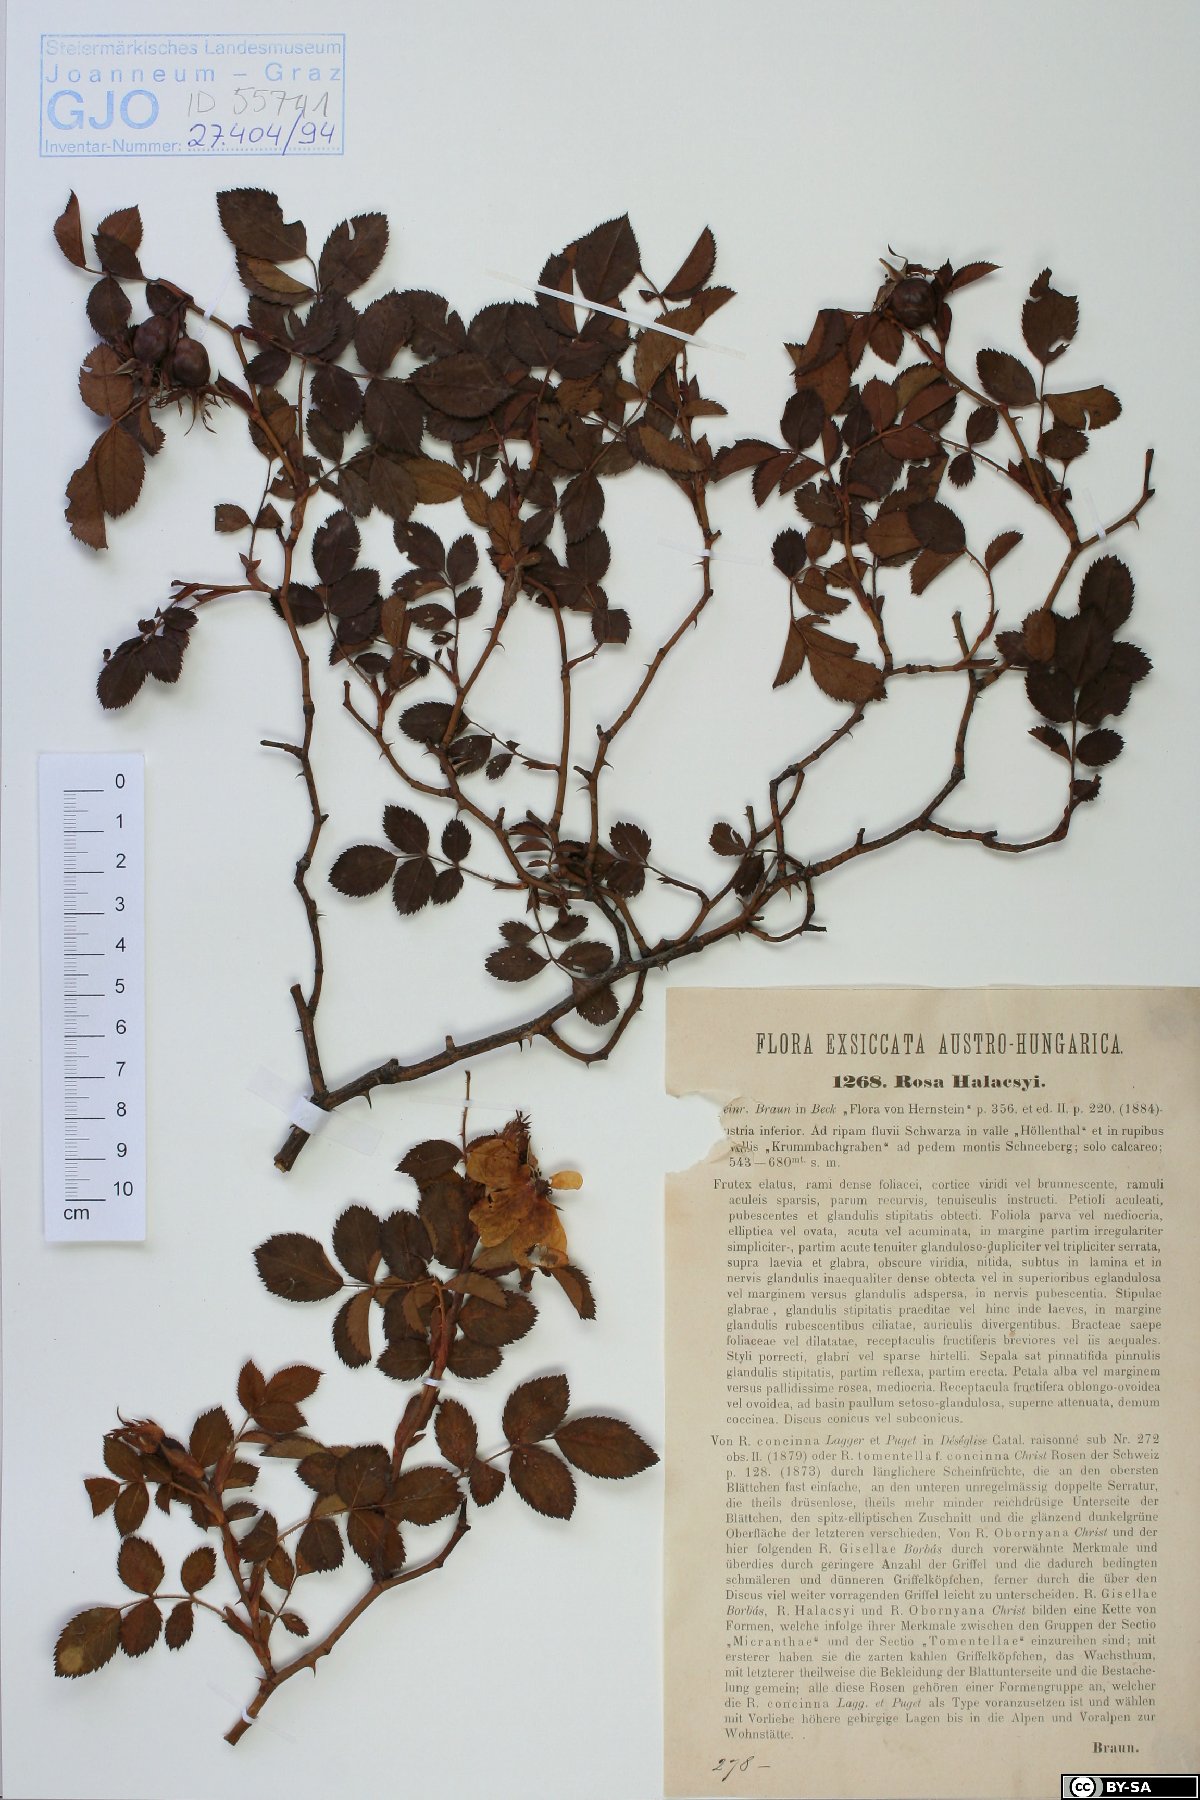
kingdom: Plantae
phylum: Tracheophyta
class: Magnoliopsida
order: Rosales
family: Rosaceae
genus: Rosa
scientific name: Rosa balsamica
